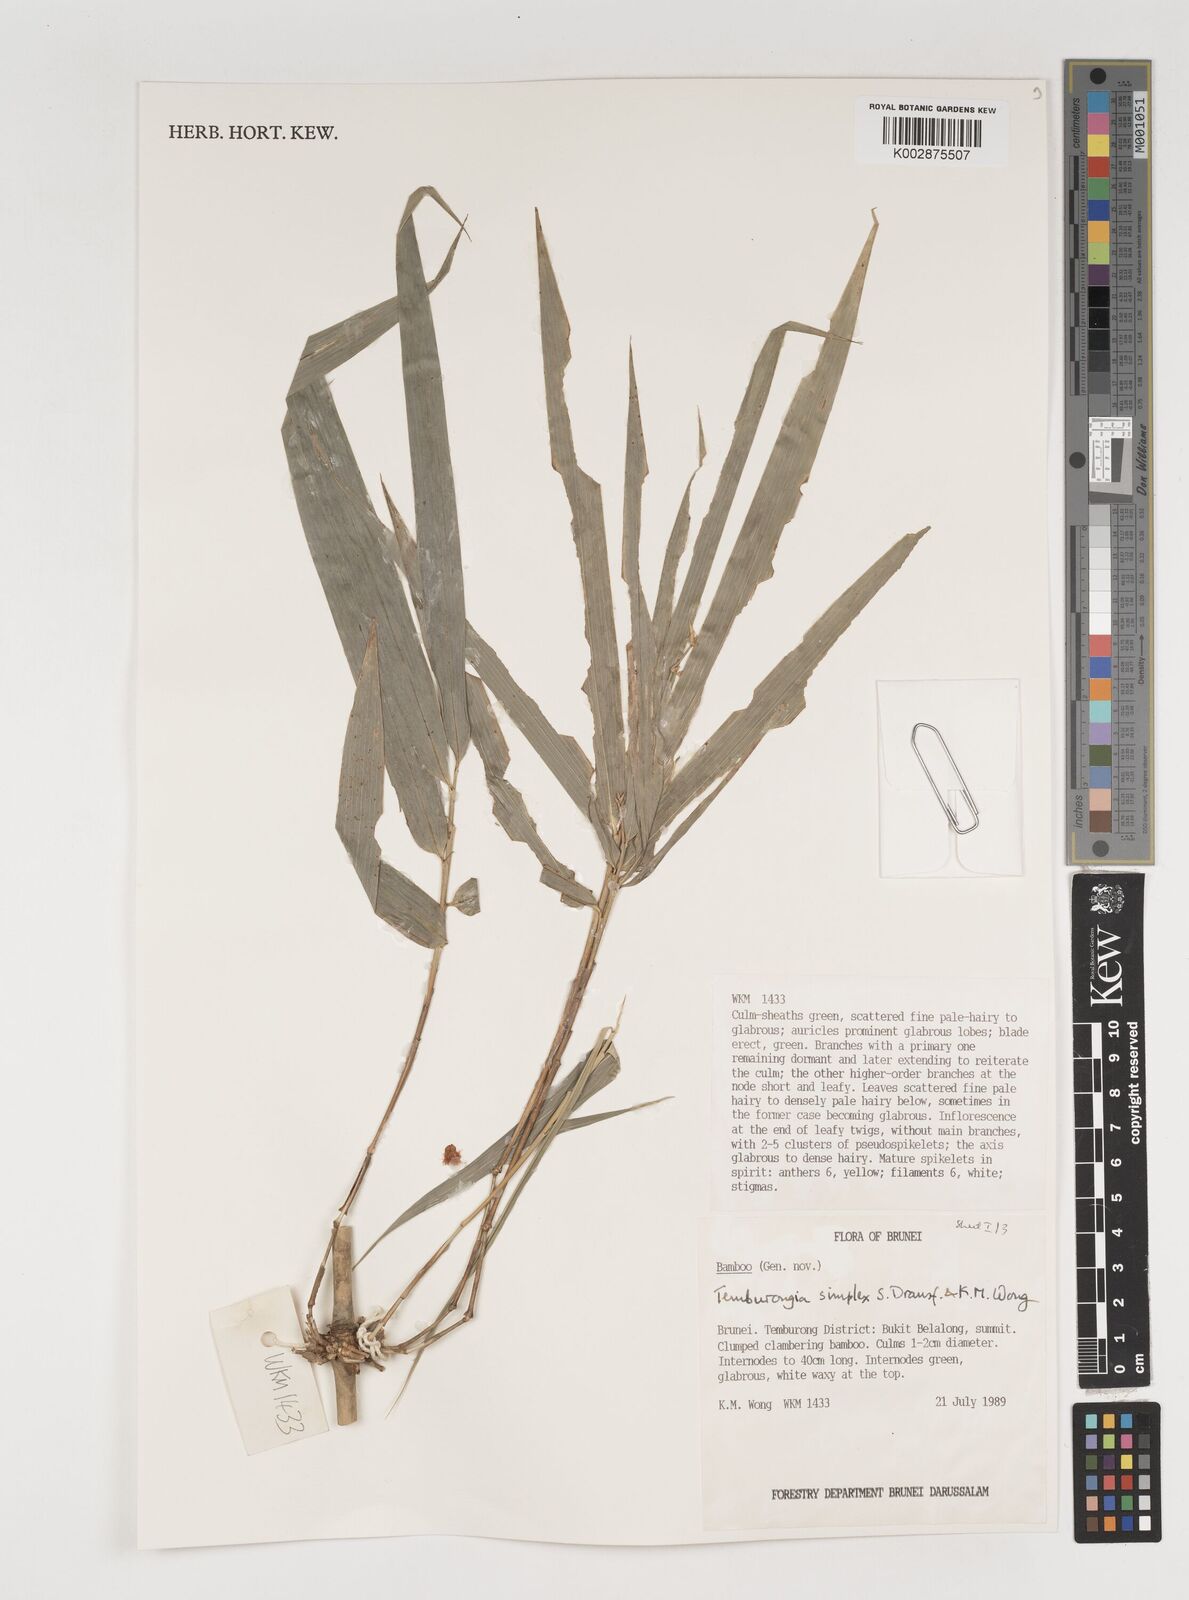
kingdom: Plantae
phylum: Tracheophyta
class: Liliopsida
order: Poales
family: Poaceae
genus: Temburongia
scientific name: Temburongia simplex
